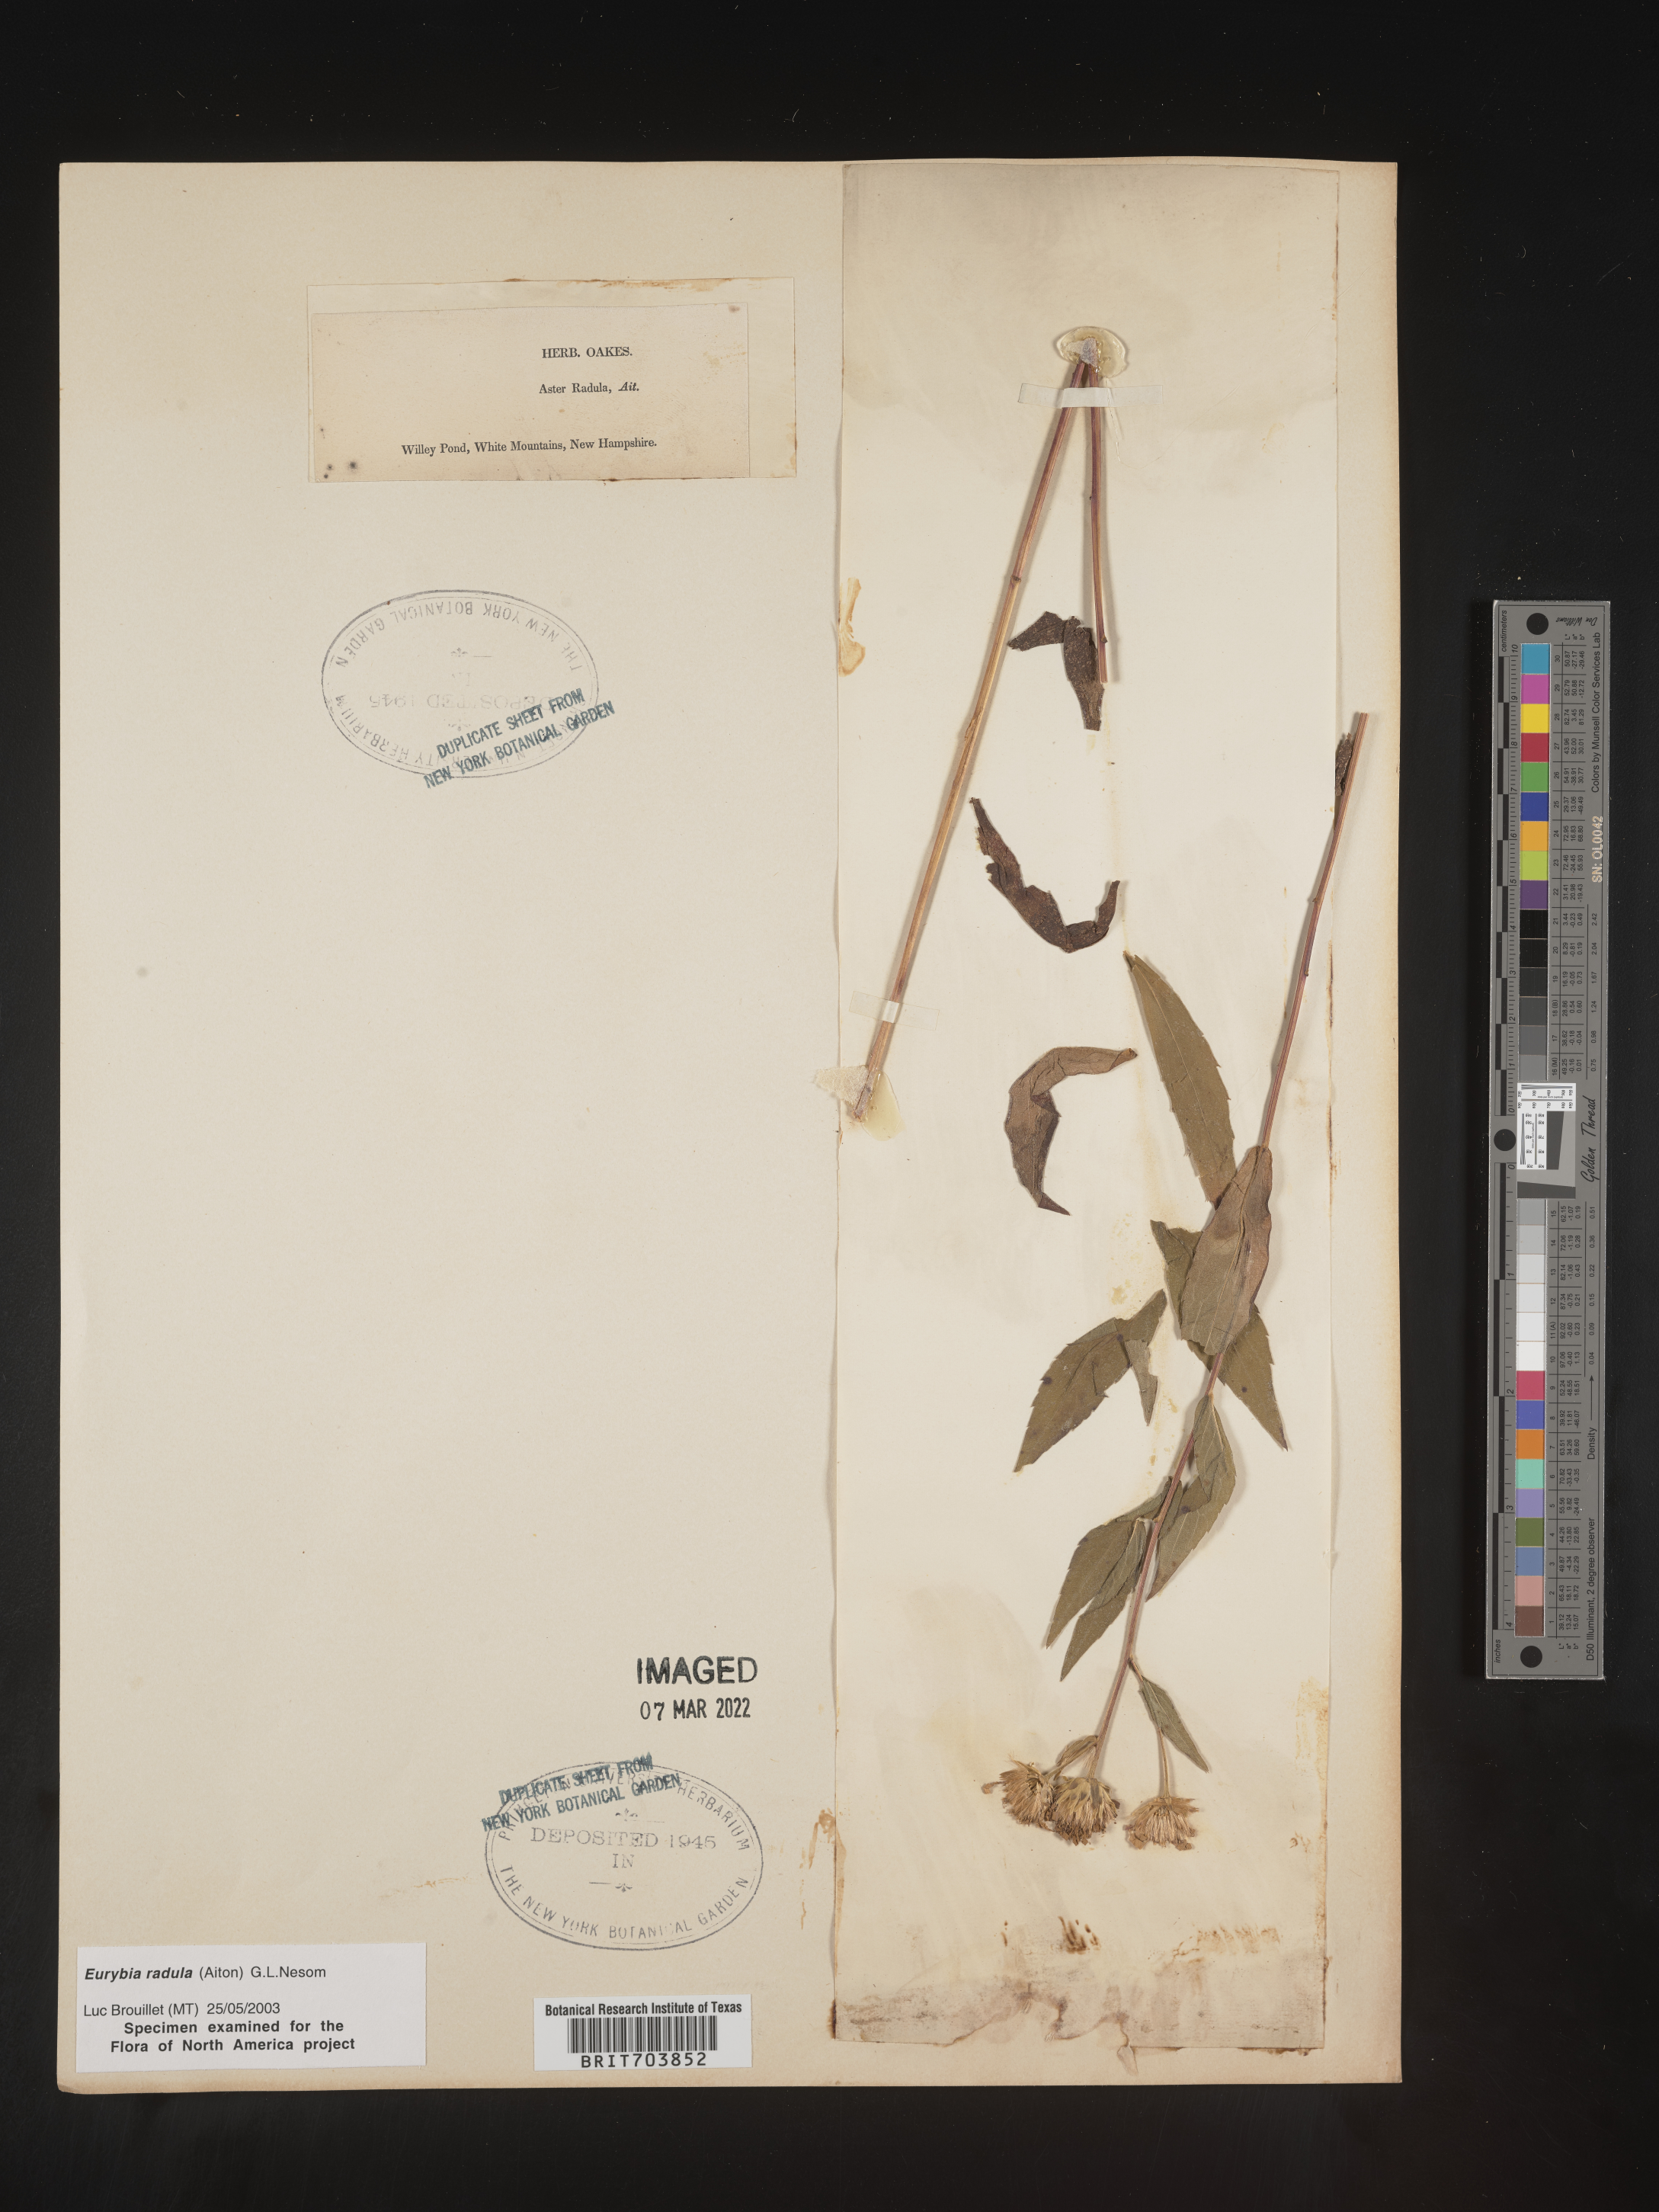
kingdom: Plantae
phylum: Tracheophyta
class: Magnoliopsida
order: Asterales
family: Asteraceae
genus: Eurybia
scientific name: Eurybia radula
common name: Low rough aster
